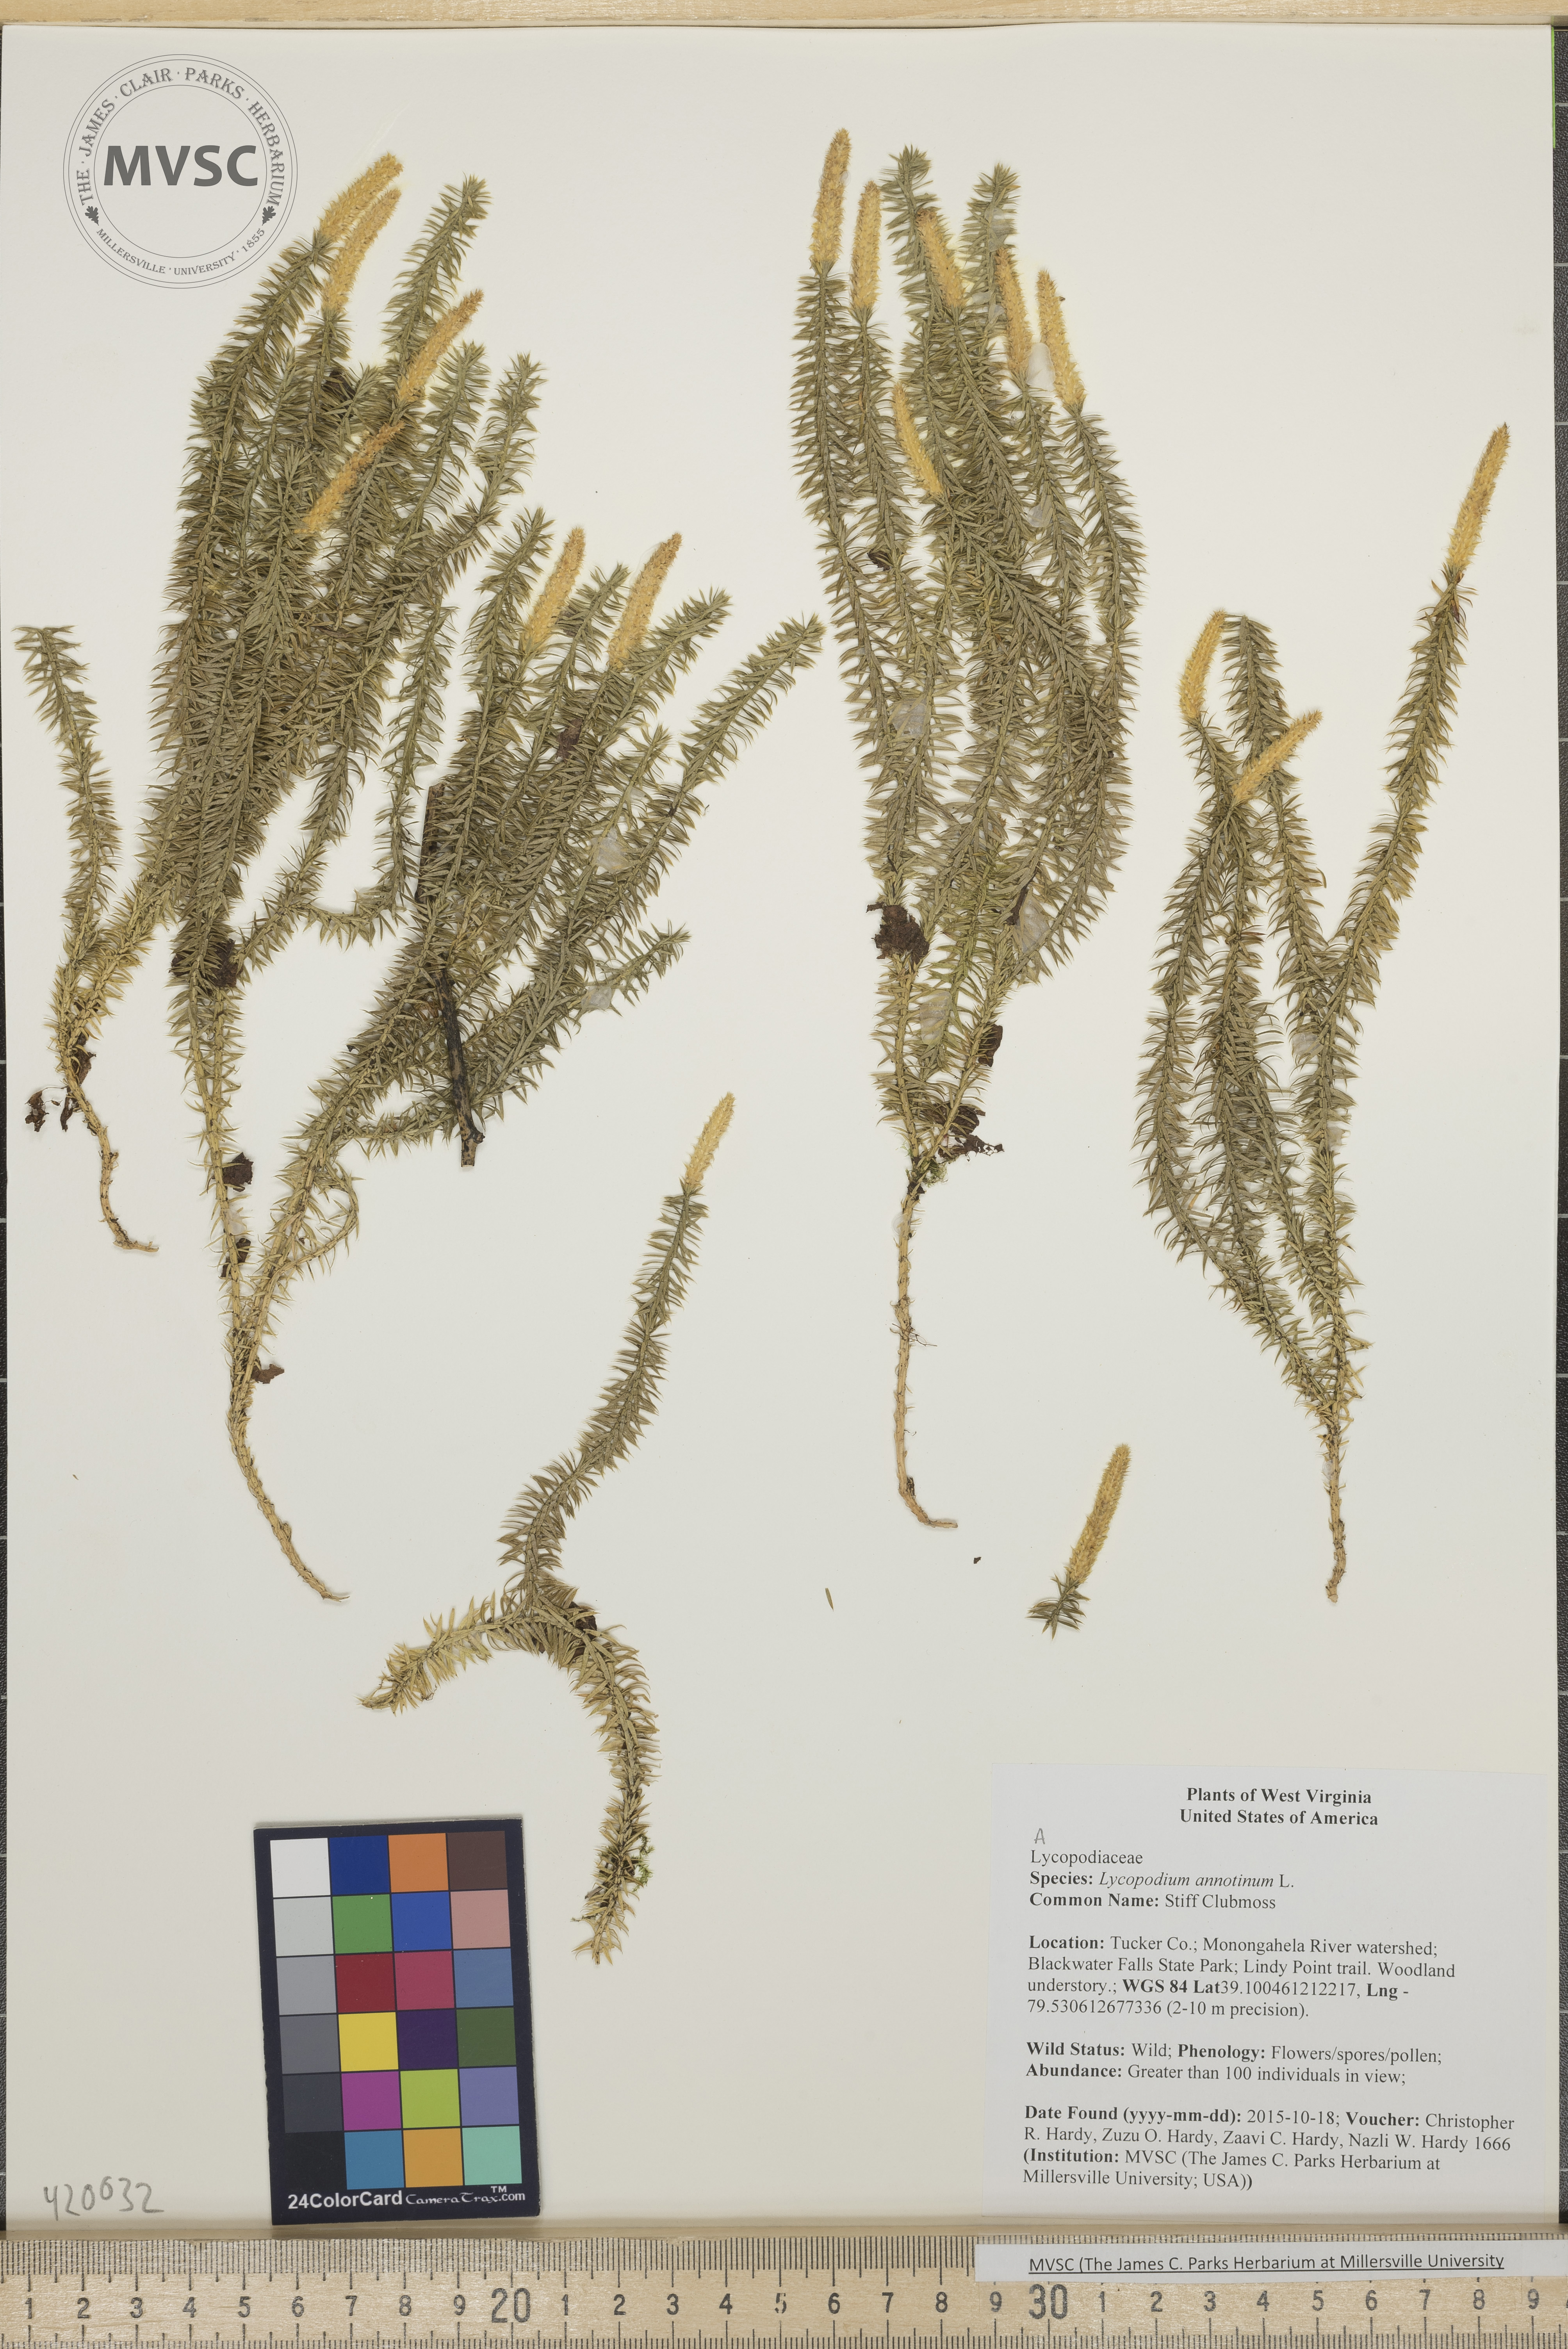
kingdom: Plantae
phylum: Tracheophyta
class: Lycopodiopsida
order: Lycopodiales
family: Lycopodiaceae
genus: Spinulum
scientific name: Spinulum annotinum
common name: Stiff Clubmoss
